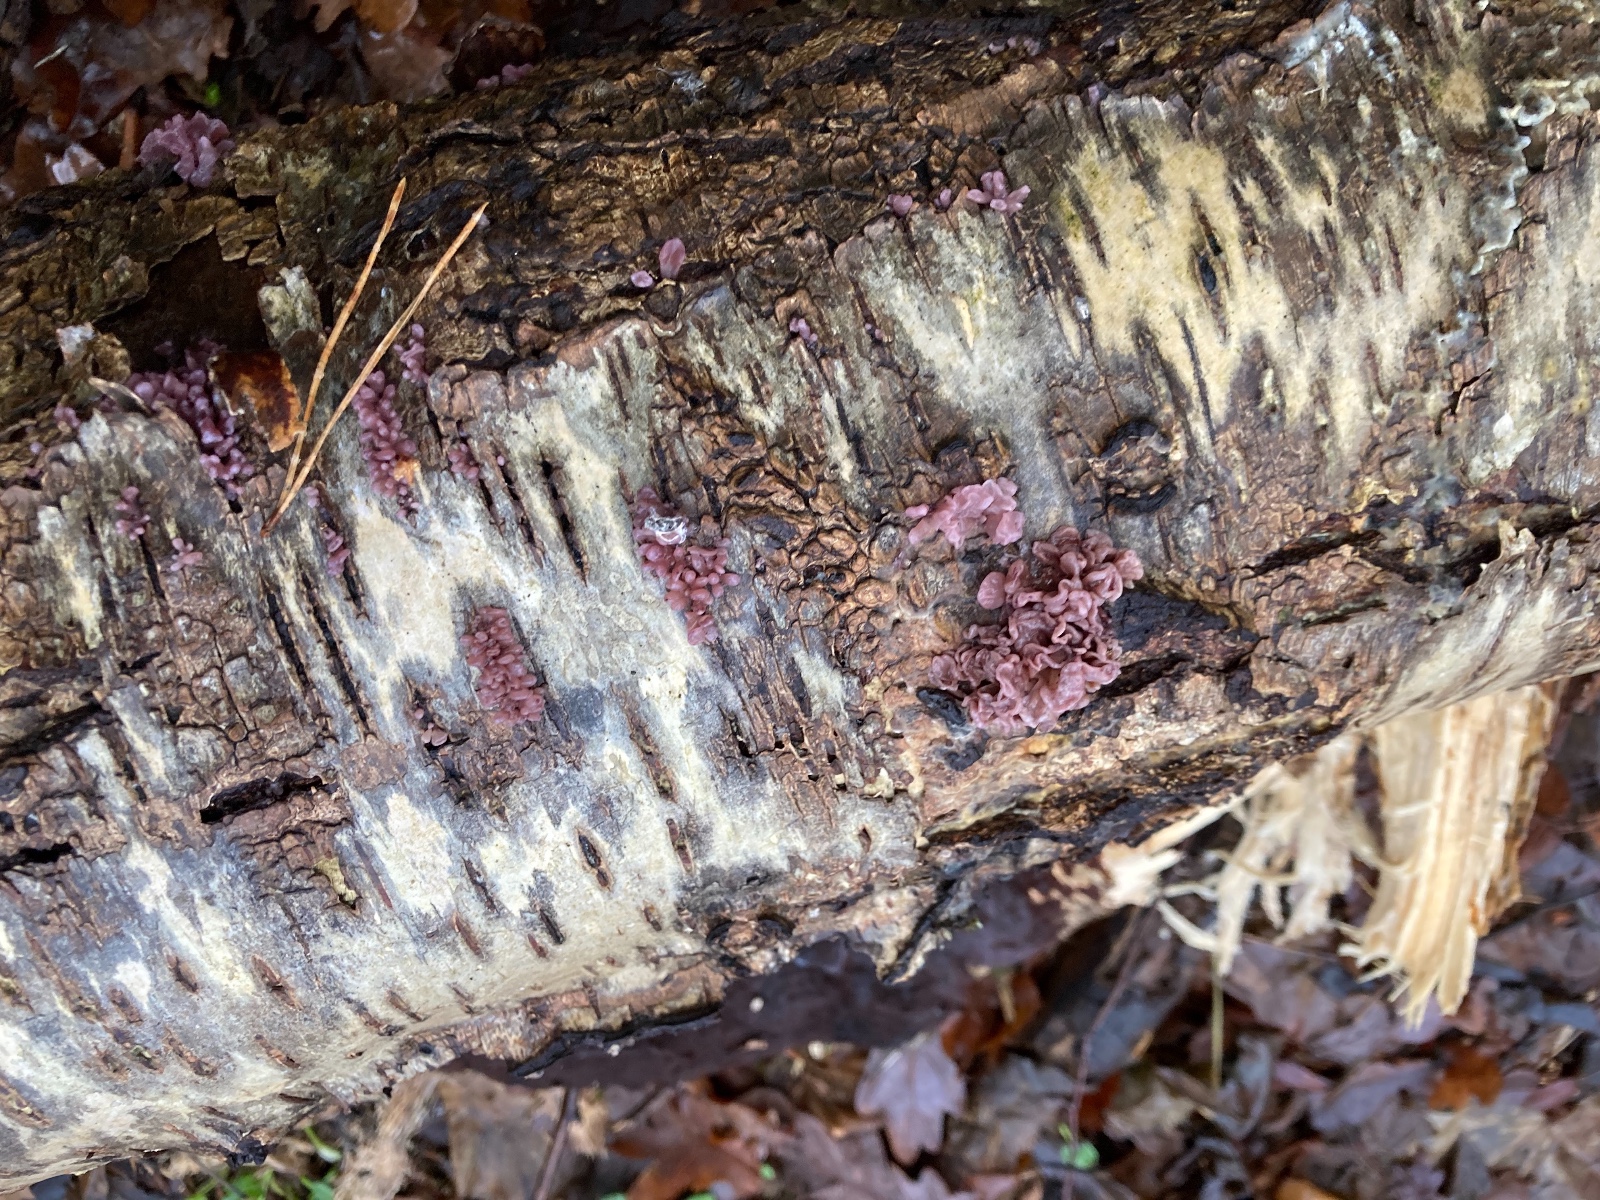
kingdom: Fungi
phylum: Ascomycota
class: Leotiomycetes
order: Helotiales
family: Gelatinodiscaceae
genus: Ascocoryne
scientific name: Ascocoryne sarcoides
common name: rødlilla sejskive
